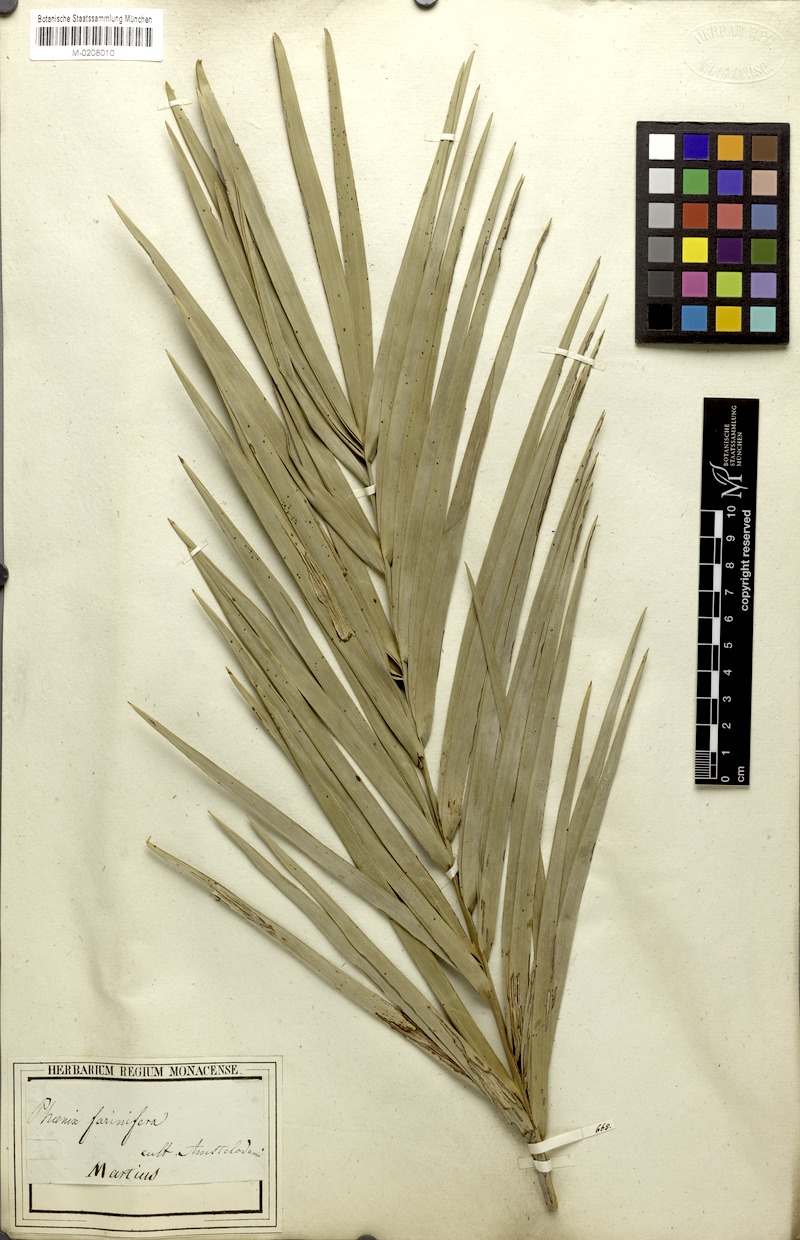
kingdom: Plantae
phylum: Tracheophyta
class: Liliopsida
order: Arecales
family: Arecaceae
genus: Phoenix
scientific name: Phoenix pusilla
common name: Flour palm
